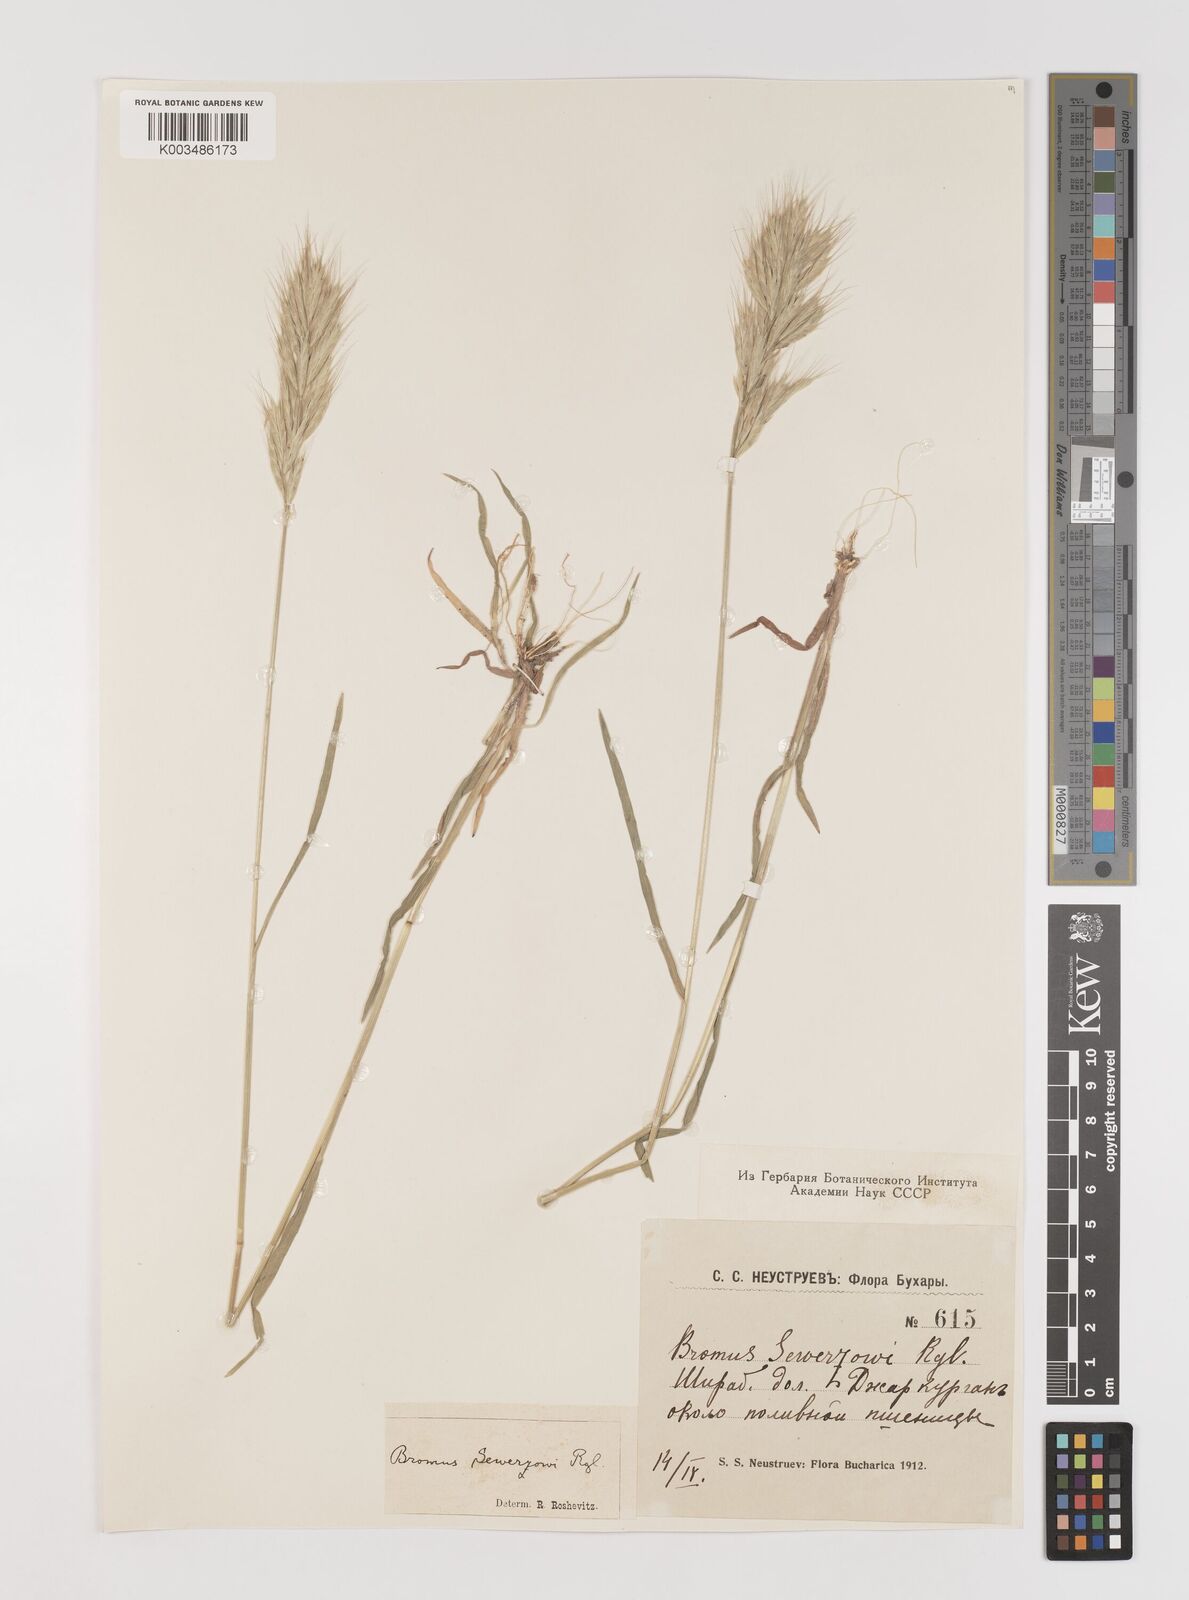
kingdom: Plantae
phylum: Tracheophyta
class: Liliopsida
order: Poales
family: Poaceae
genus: Bromus
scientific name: Bromus sewerzowii
